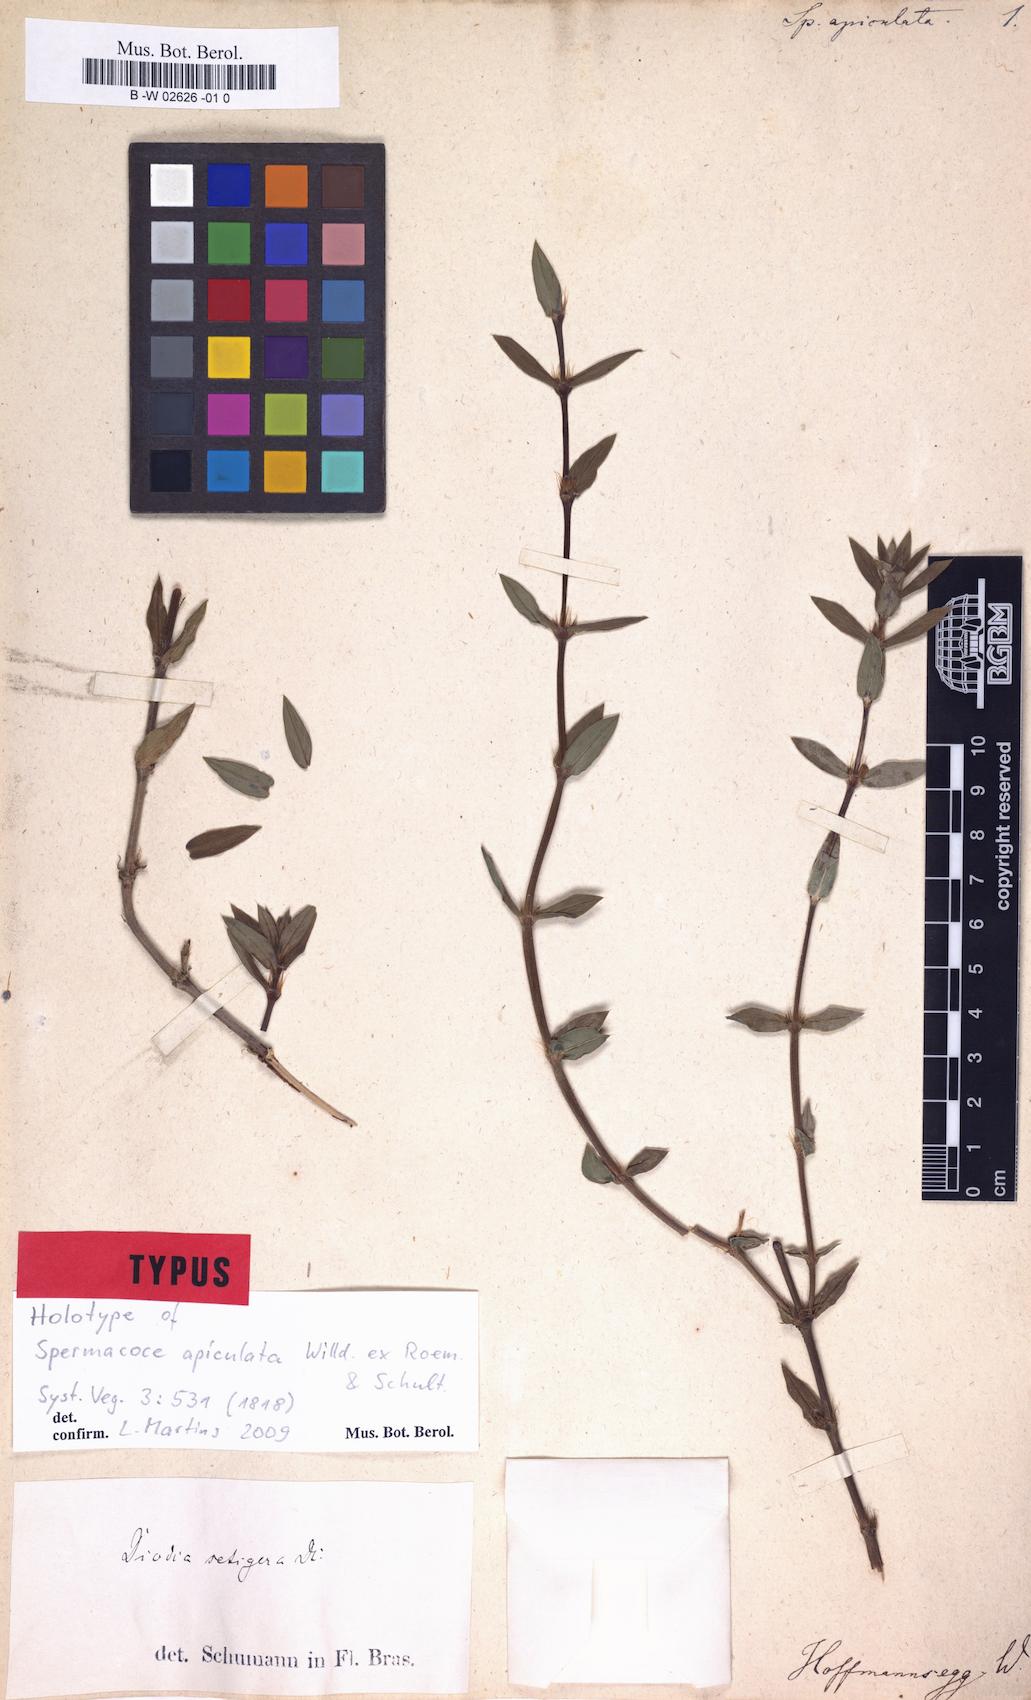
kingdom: Plantae
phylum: Tracheophyta
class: Magnoliopsida
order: Gentianales
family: Rubiaceae
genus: Hexasepalum
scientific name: Hexasepalum apiculatum
